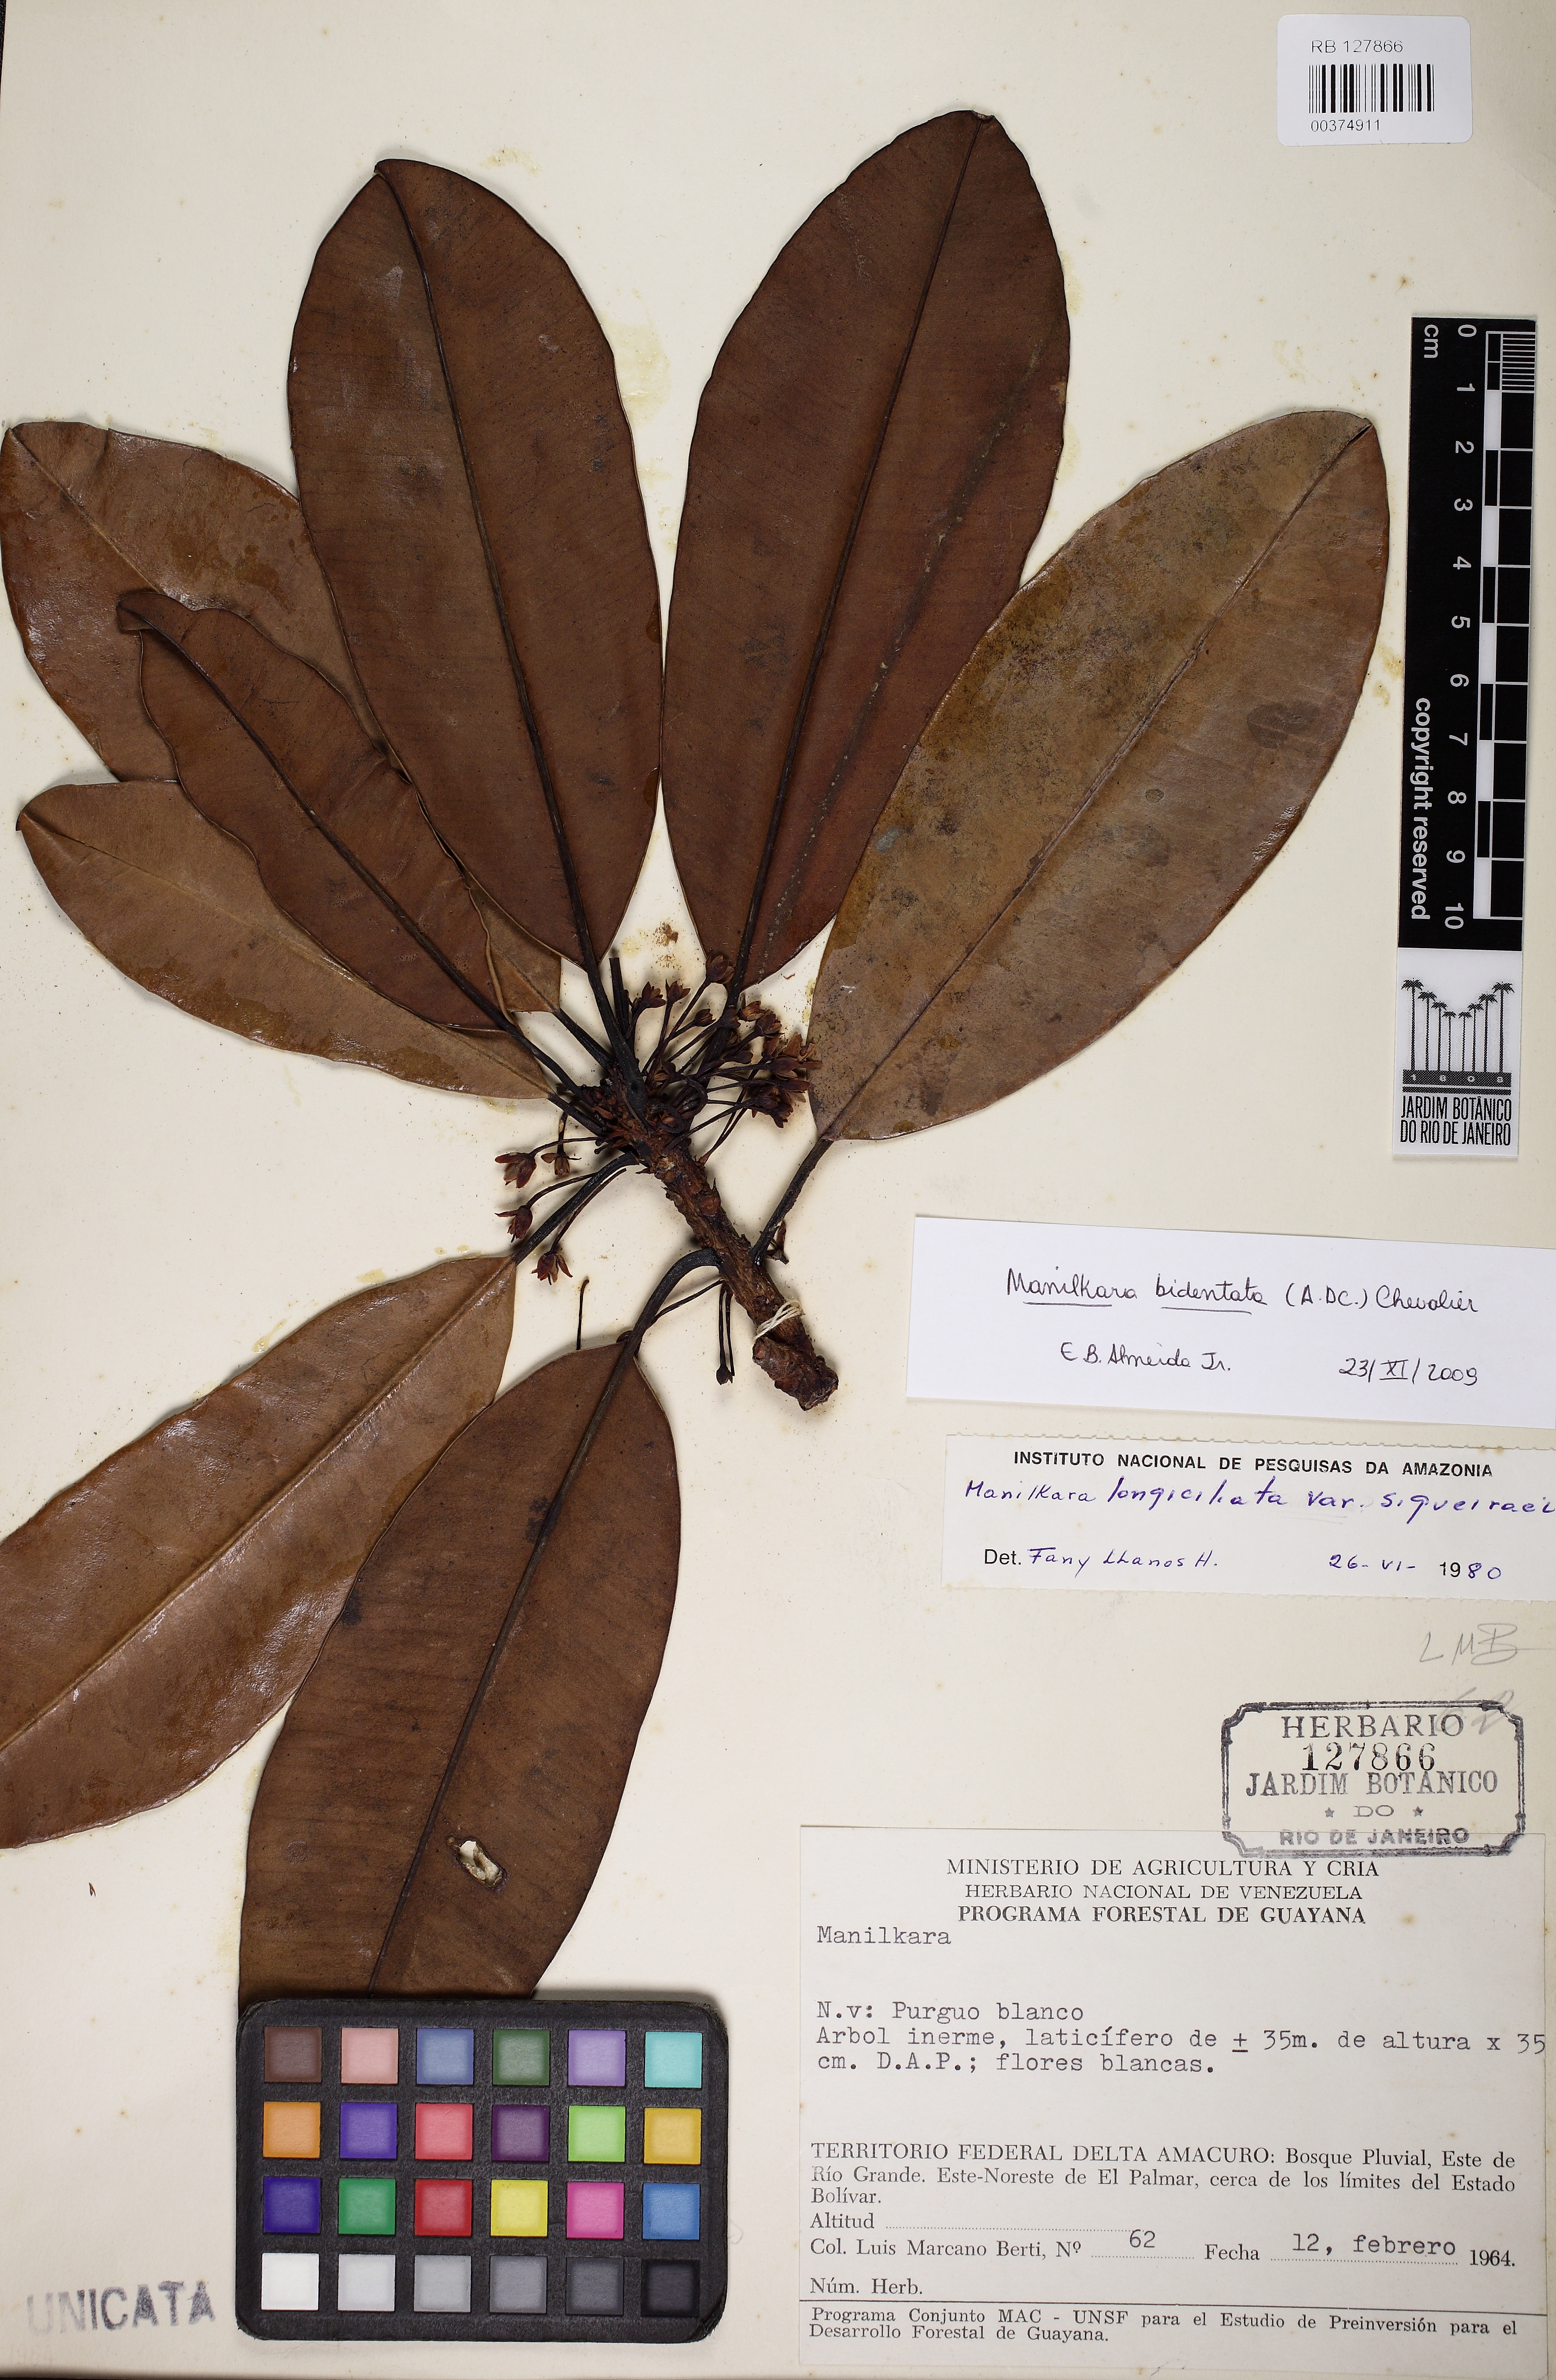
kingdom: Plantae
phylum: Tracheophyta
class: Magnoliopsida
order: Ericales
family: Sapotaceae
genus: Manilkara
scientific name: Manilkara bidentata
